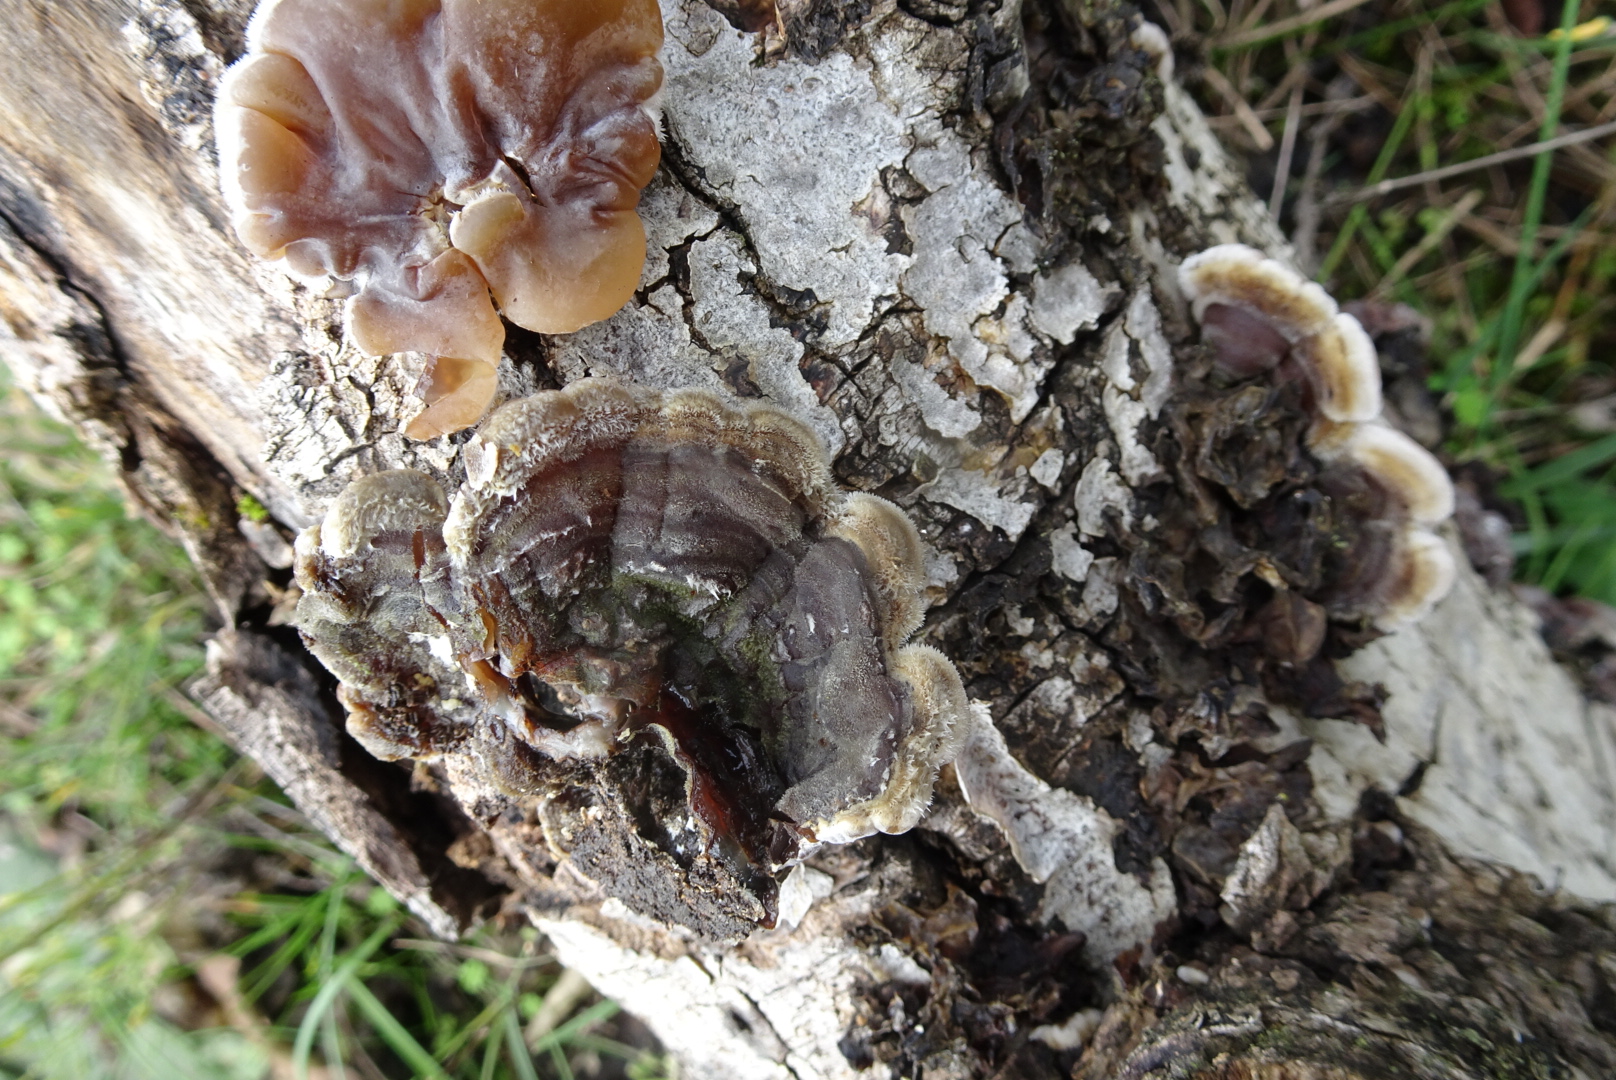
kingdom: Fungi
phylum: Basidiomycota
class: Agaricomycetes
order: Auriculariales
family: Auriculariaceae
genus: Auricularia
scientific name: Auricularia mesenterica
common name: håret judasøre
